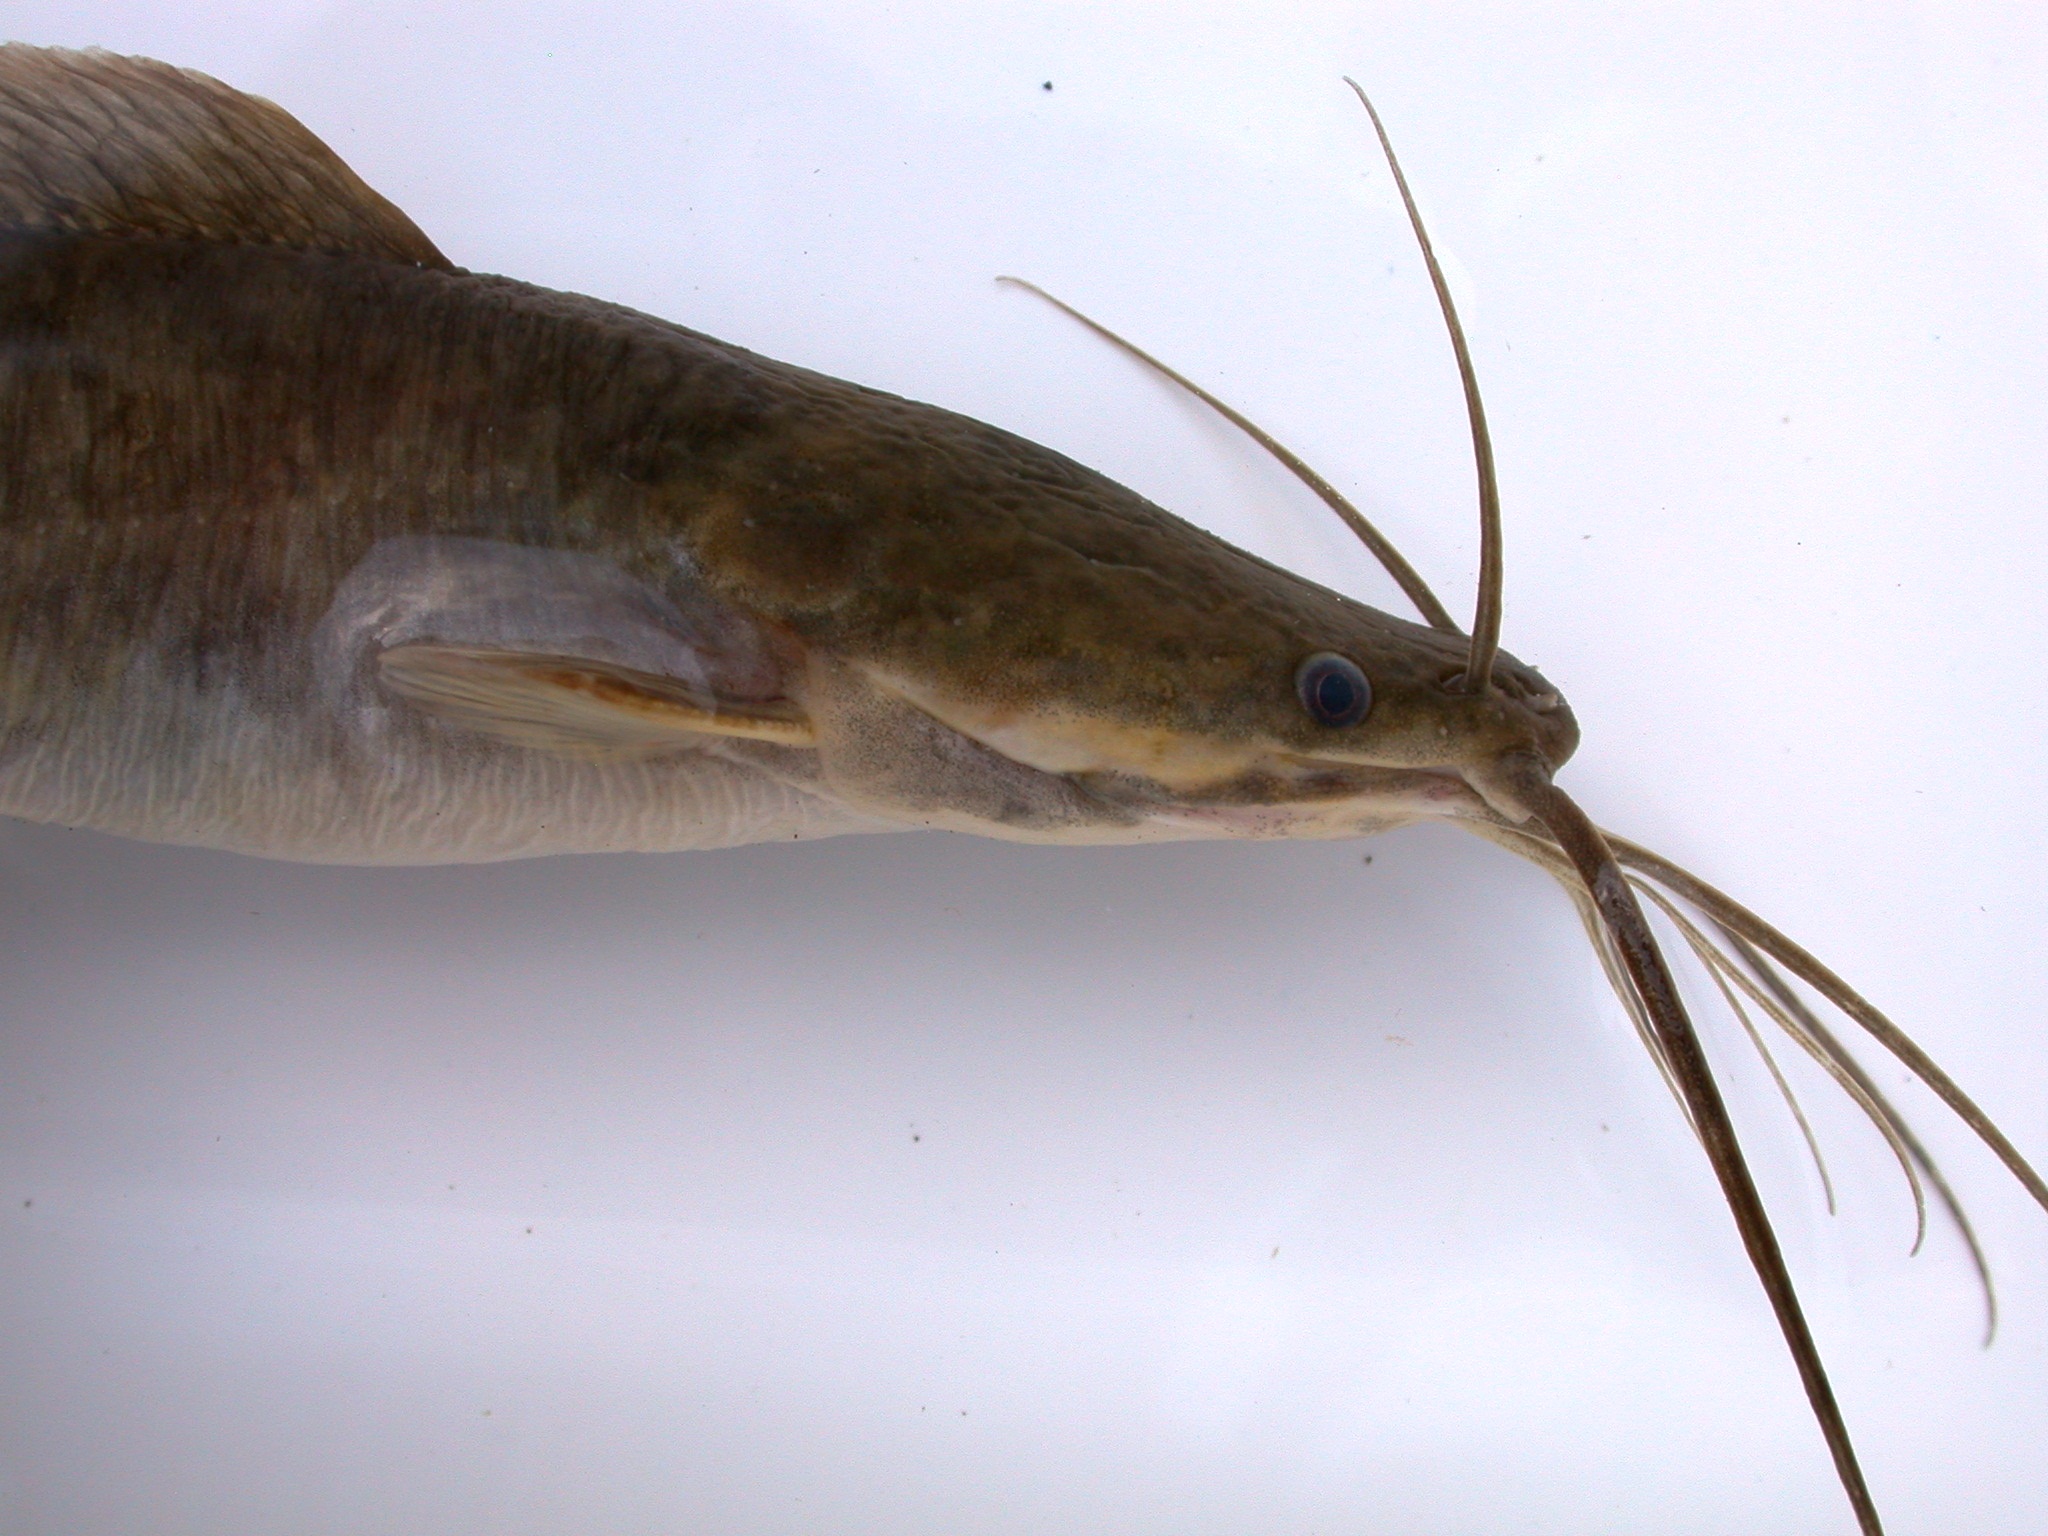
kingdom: Animalia
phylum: Chordata
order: Siluriformes
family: Clariidae
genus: Clarias
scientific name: Clarias gariepinus
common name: African catfish
